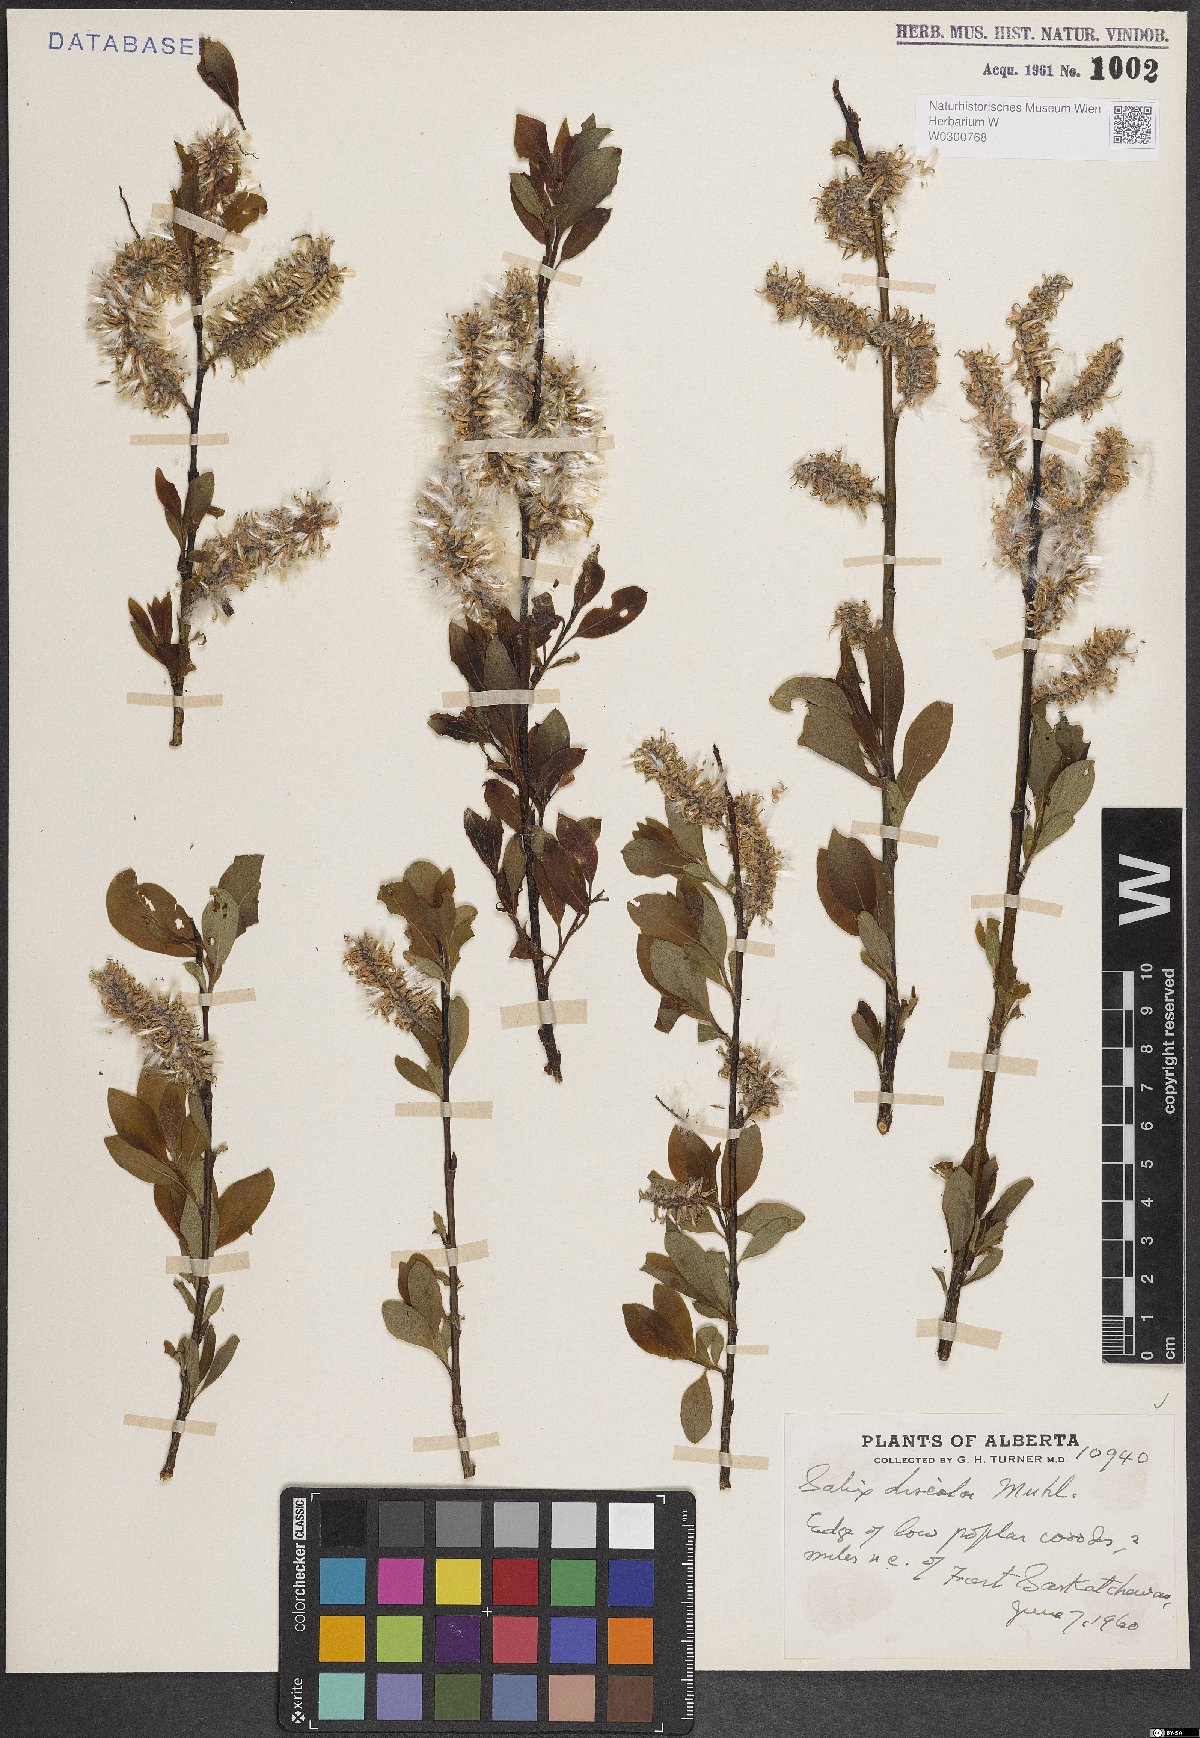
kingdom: Plantae
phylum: Tracheophyta
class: Magnoliopsida
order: Malpighiales
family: Salicaceae
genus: Salix
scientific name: Salix discolor
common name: Glaucous willow
